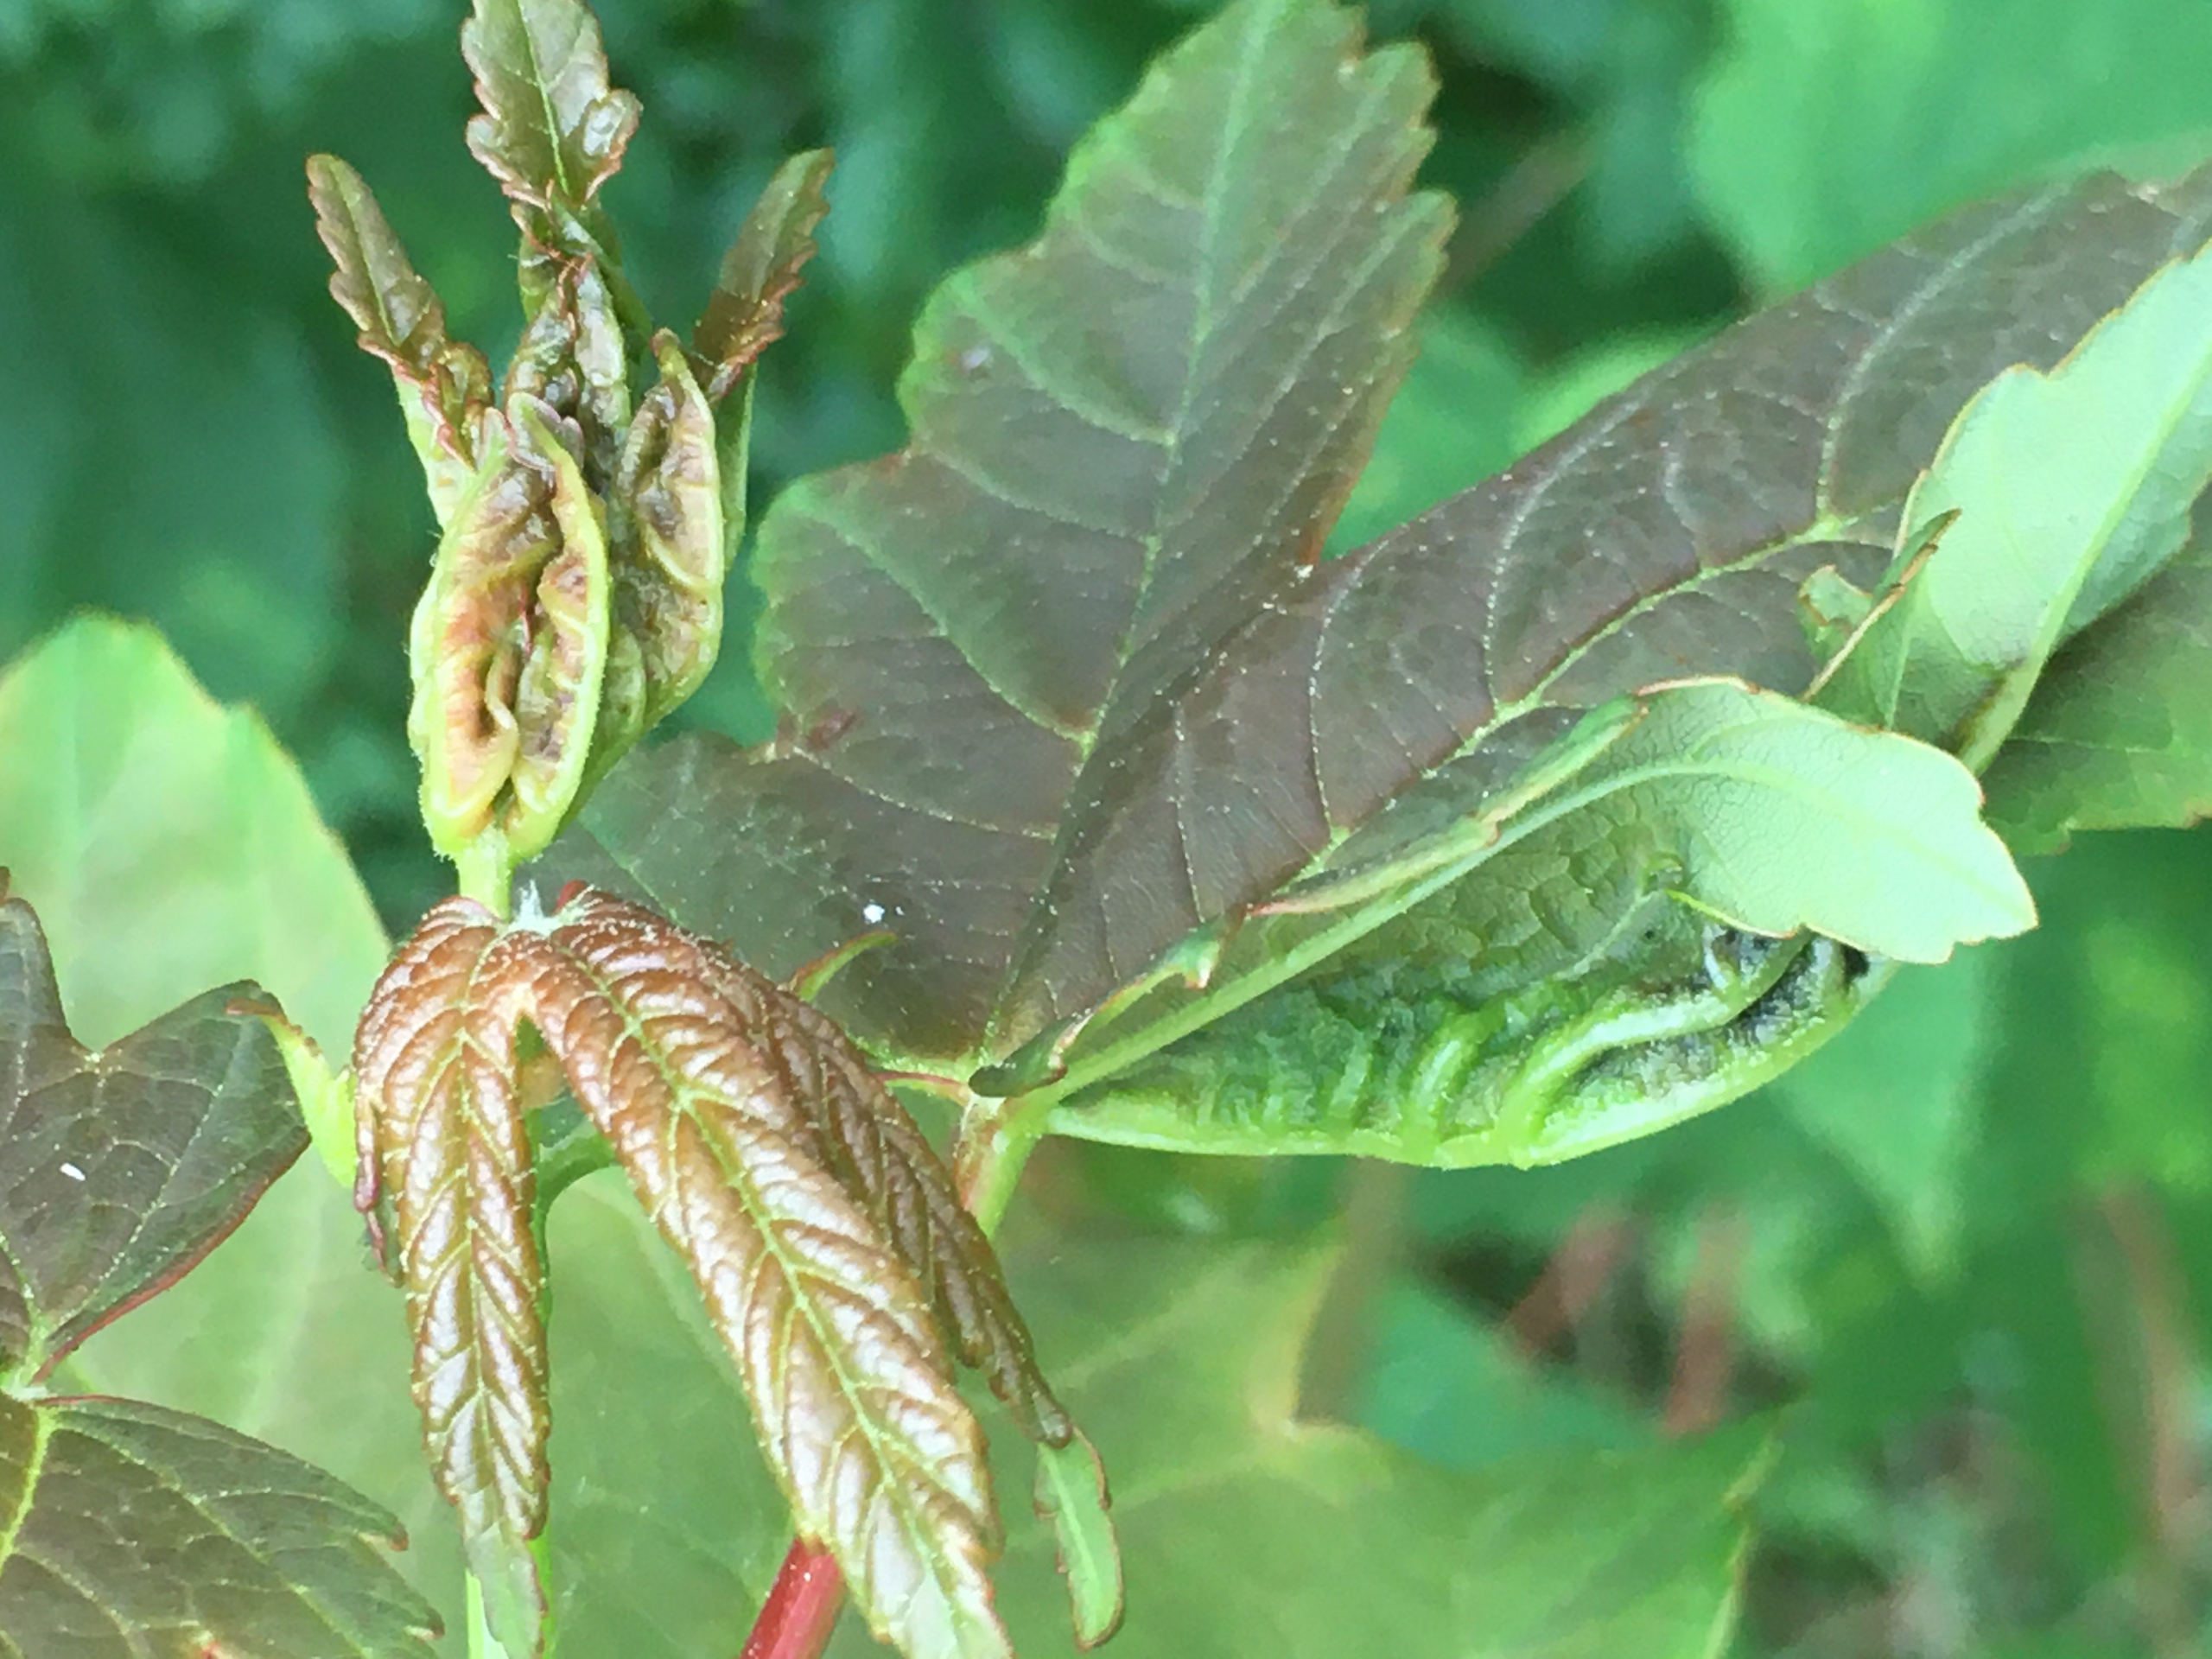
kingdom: Animalia
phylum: Arthropoda
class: Insecta
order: Diptera
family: Cecidomyiidae
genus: Dasineura
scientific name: Dasineura irregularis
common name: Ahornkrusegalmyg
